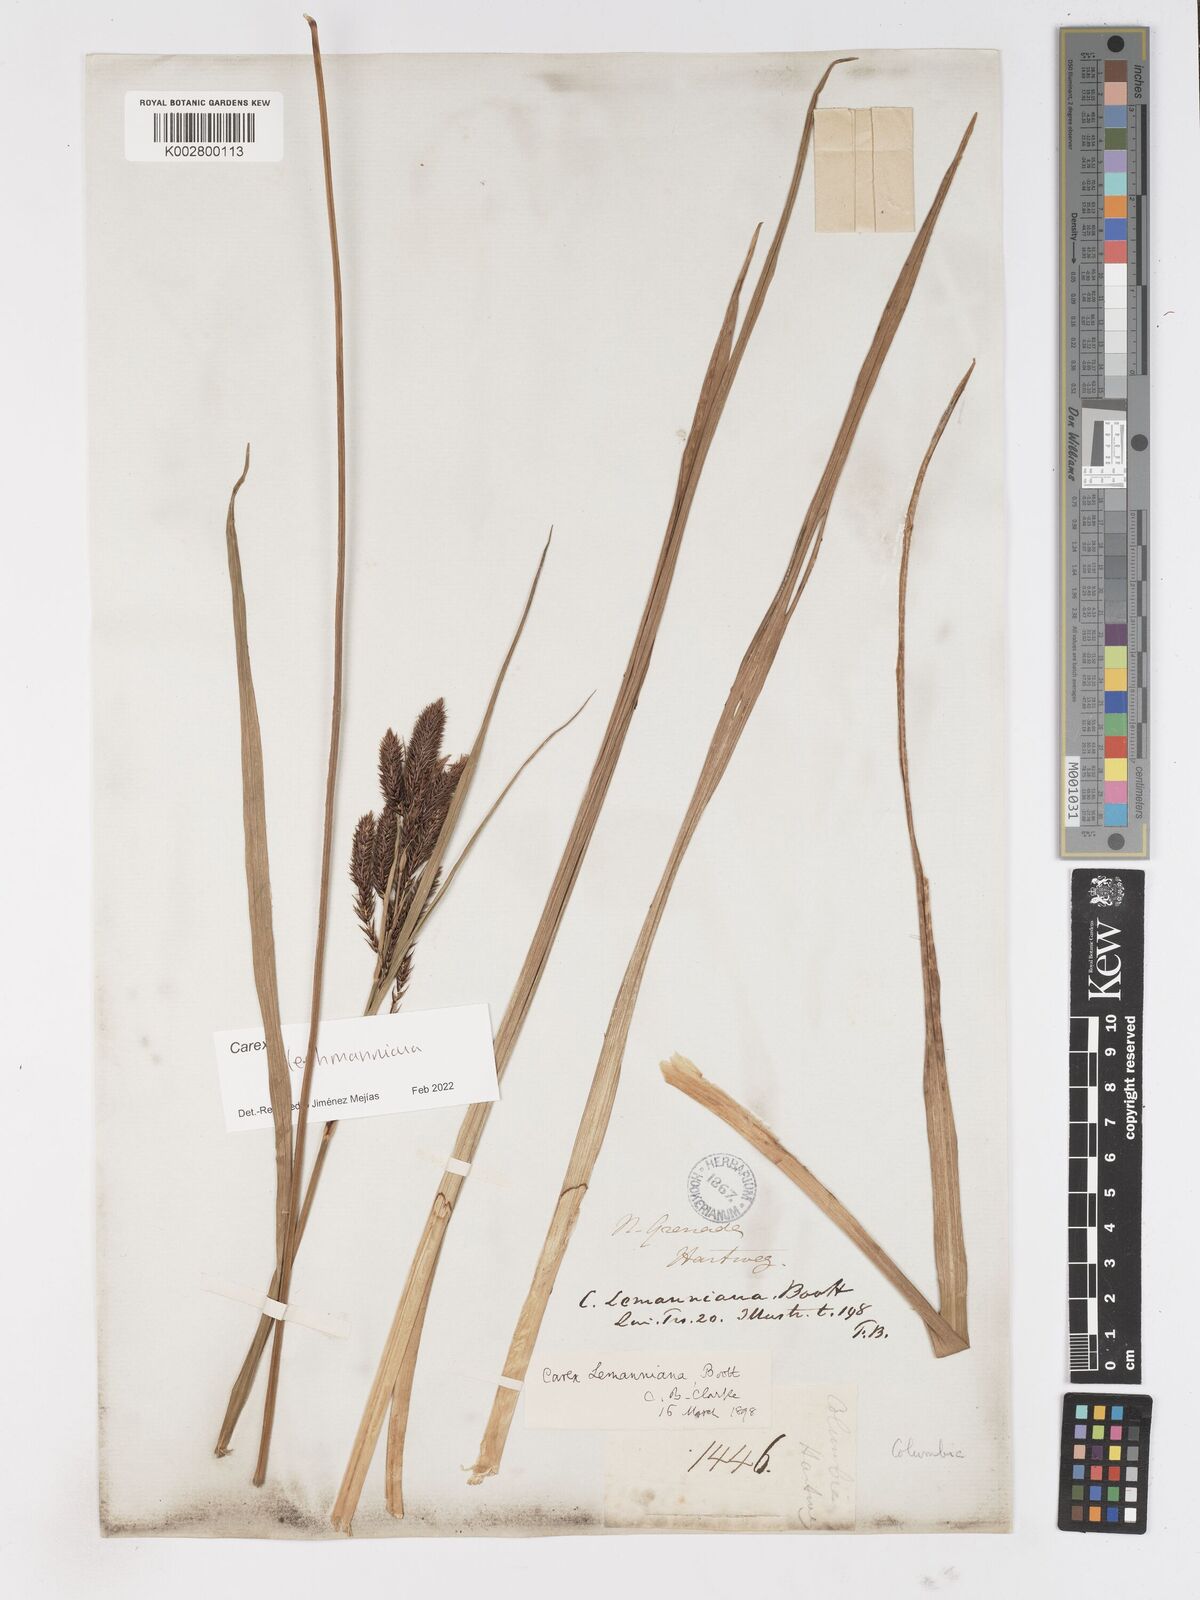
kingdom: Plantae
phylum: Tracheophyta
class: Liliopsida
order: Poales
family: Cyperaceae
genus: Carex
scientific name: Carex lemanniana
